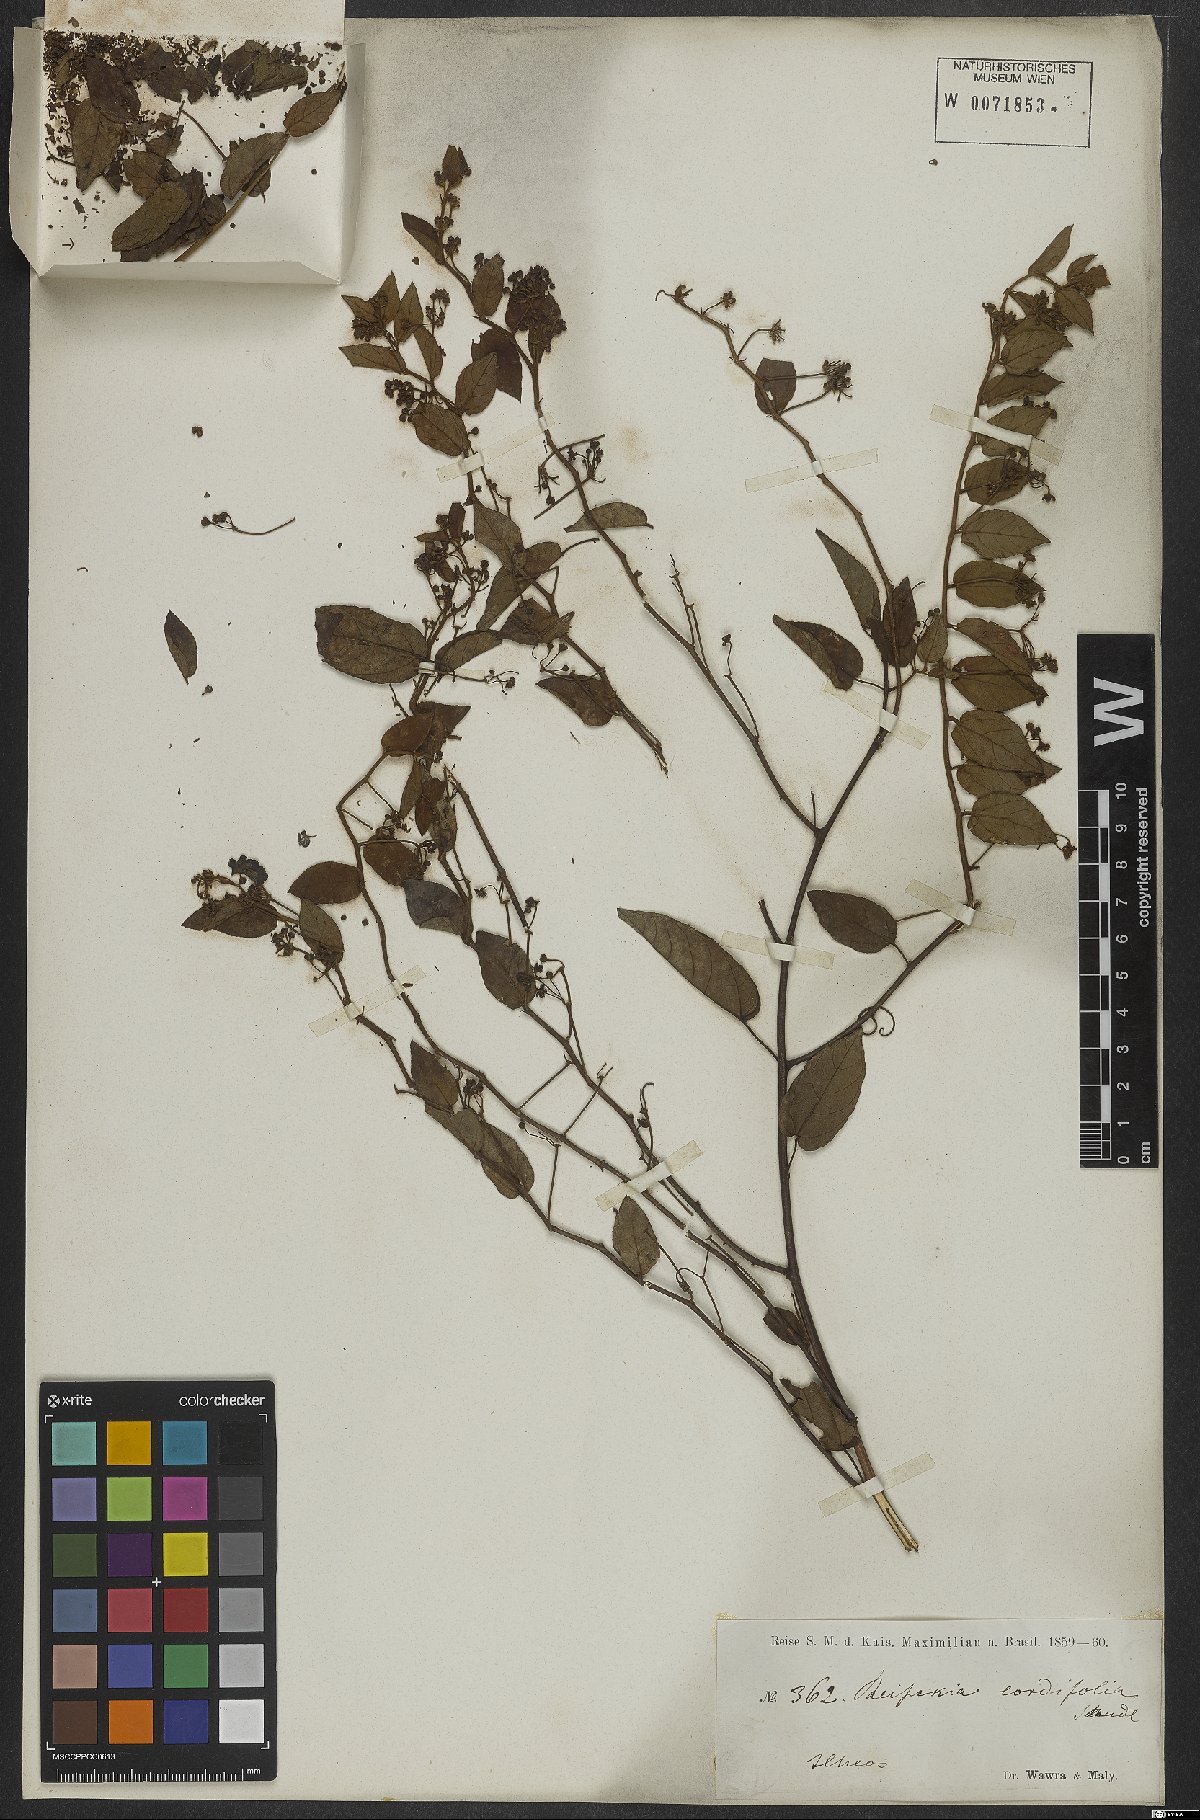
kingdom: Plantae
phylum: Tracheophyta
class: Magnoliopsida
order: Rosales
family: Rhamnaceae
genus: Reissekia
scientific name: Reissekia smilacina
